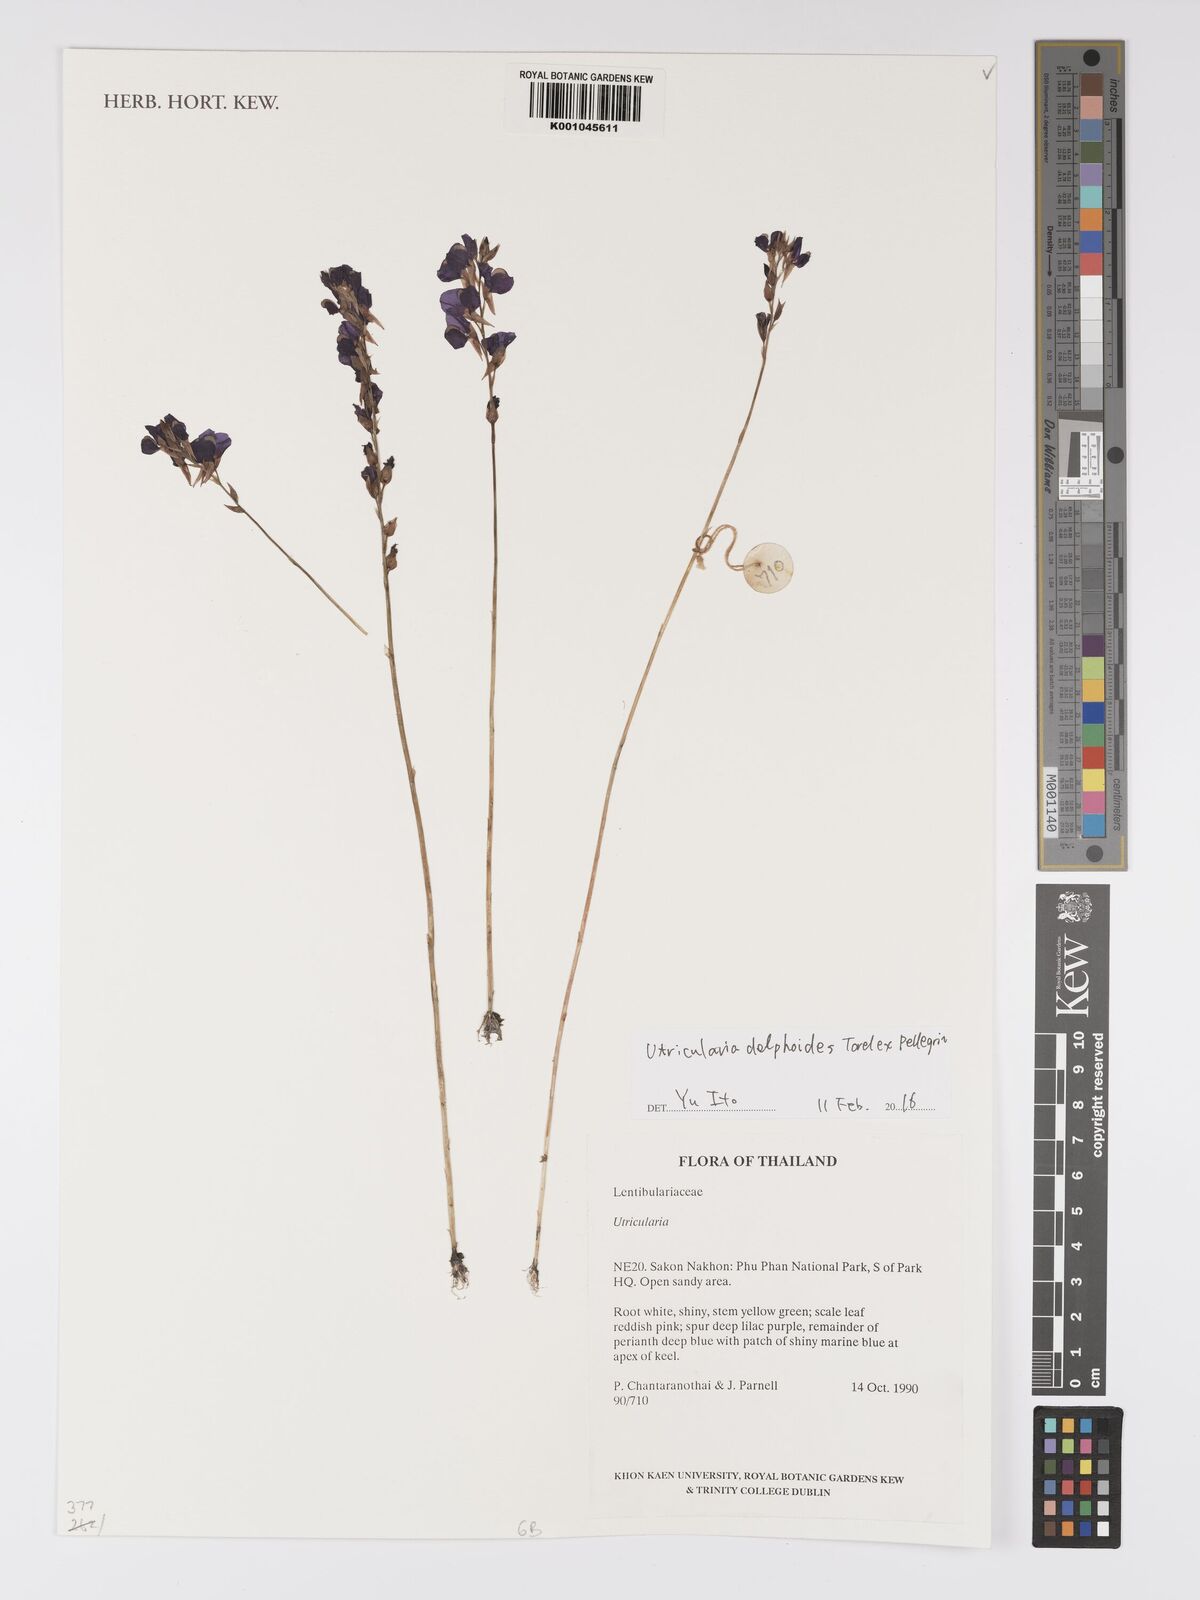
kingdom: Plantae
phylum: Tracheophyta
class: Magnoliopsida
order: Lamiales
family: Lentibulariaceae
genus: Utricularia
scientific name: Utricularia
